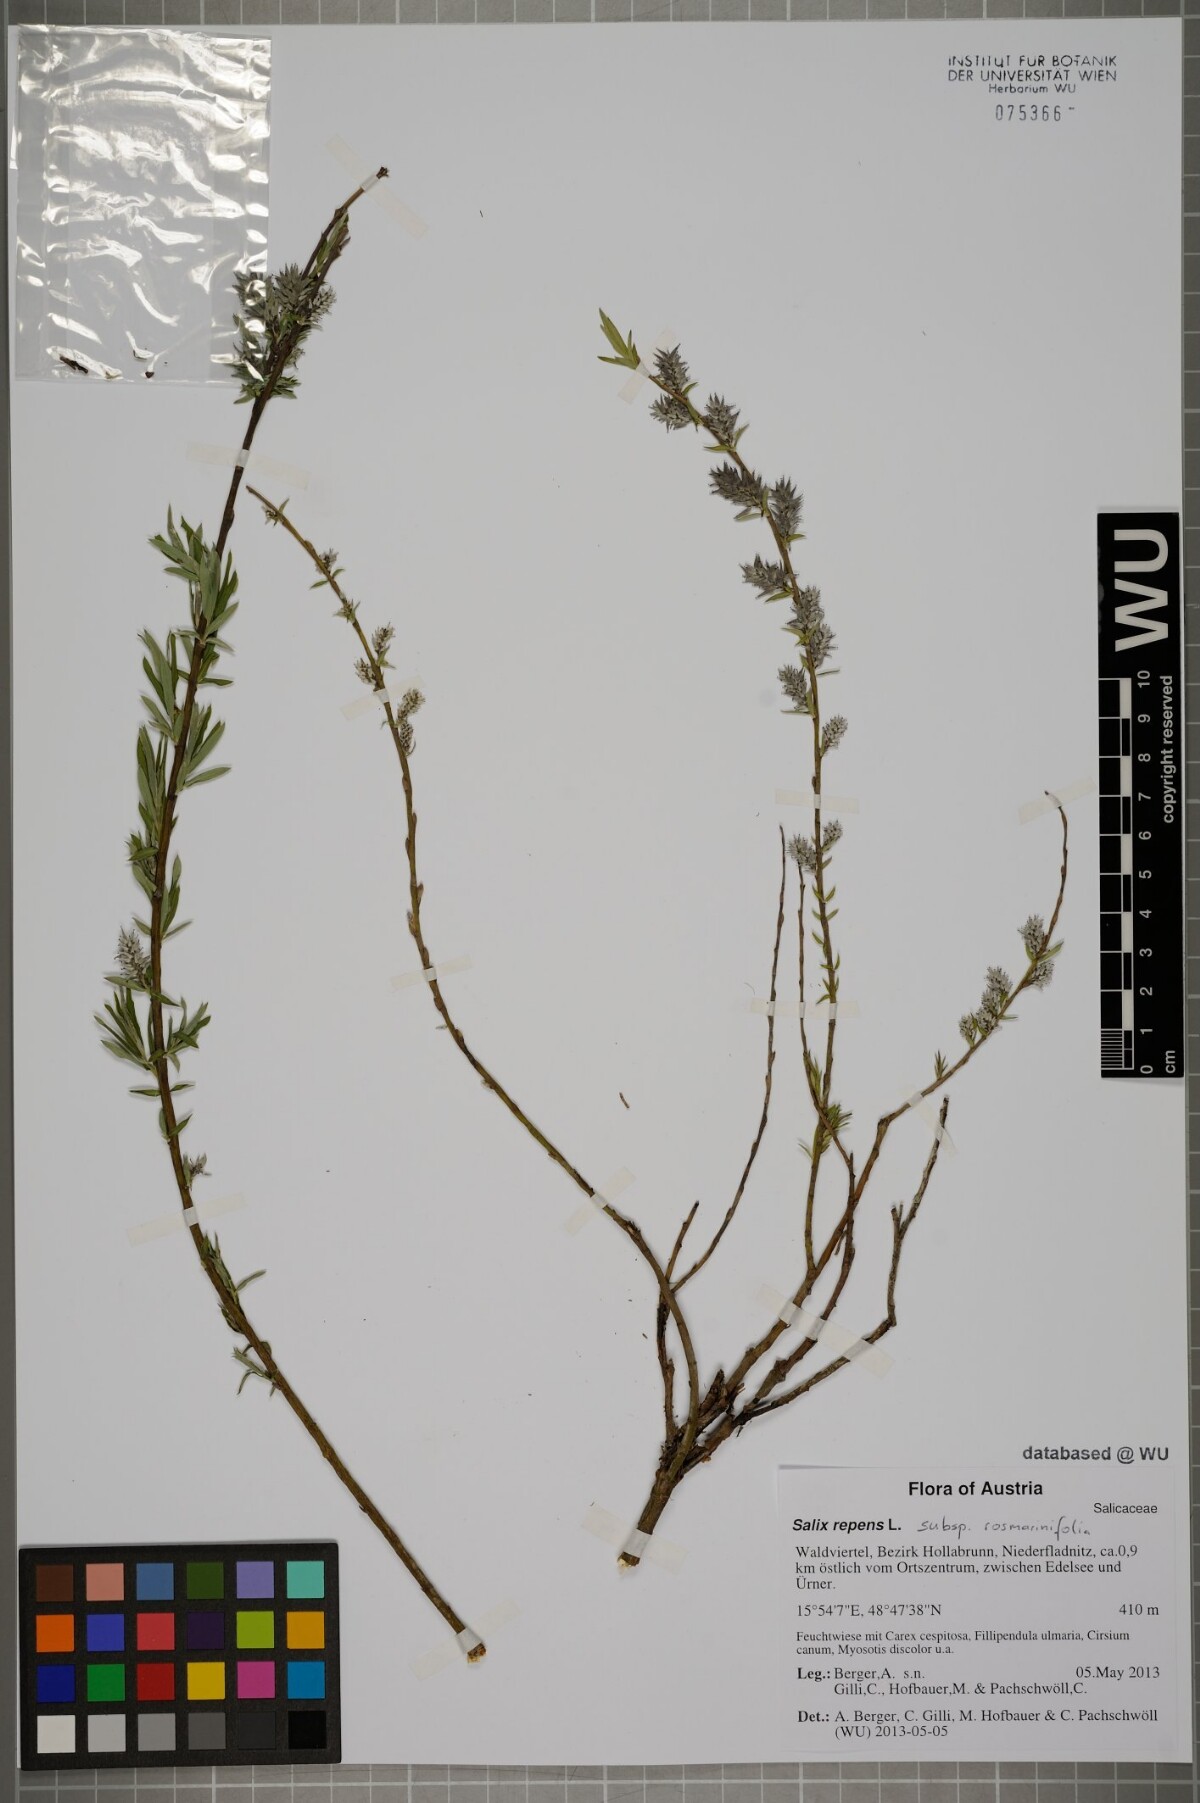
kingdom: Plantae
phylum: Tracheophyta
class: Magnoliopsida
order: Malpighiales
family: Salicaceae
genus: Salix
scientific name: Salix repens
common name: Creeping willow
